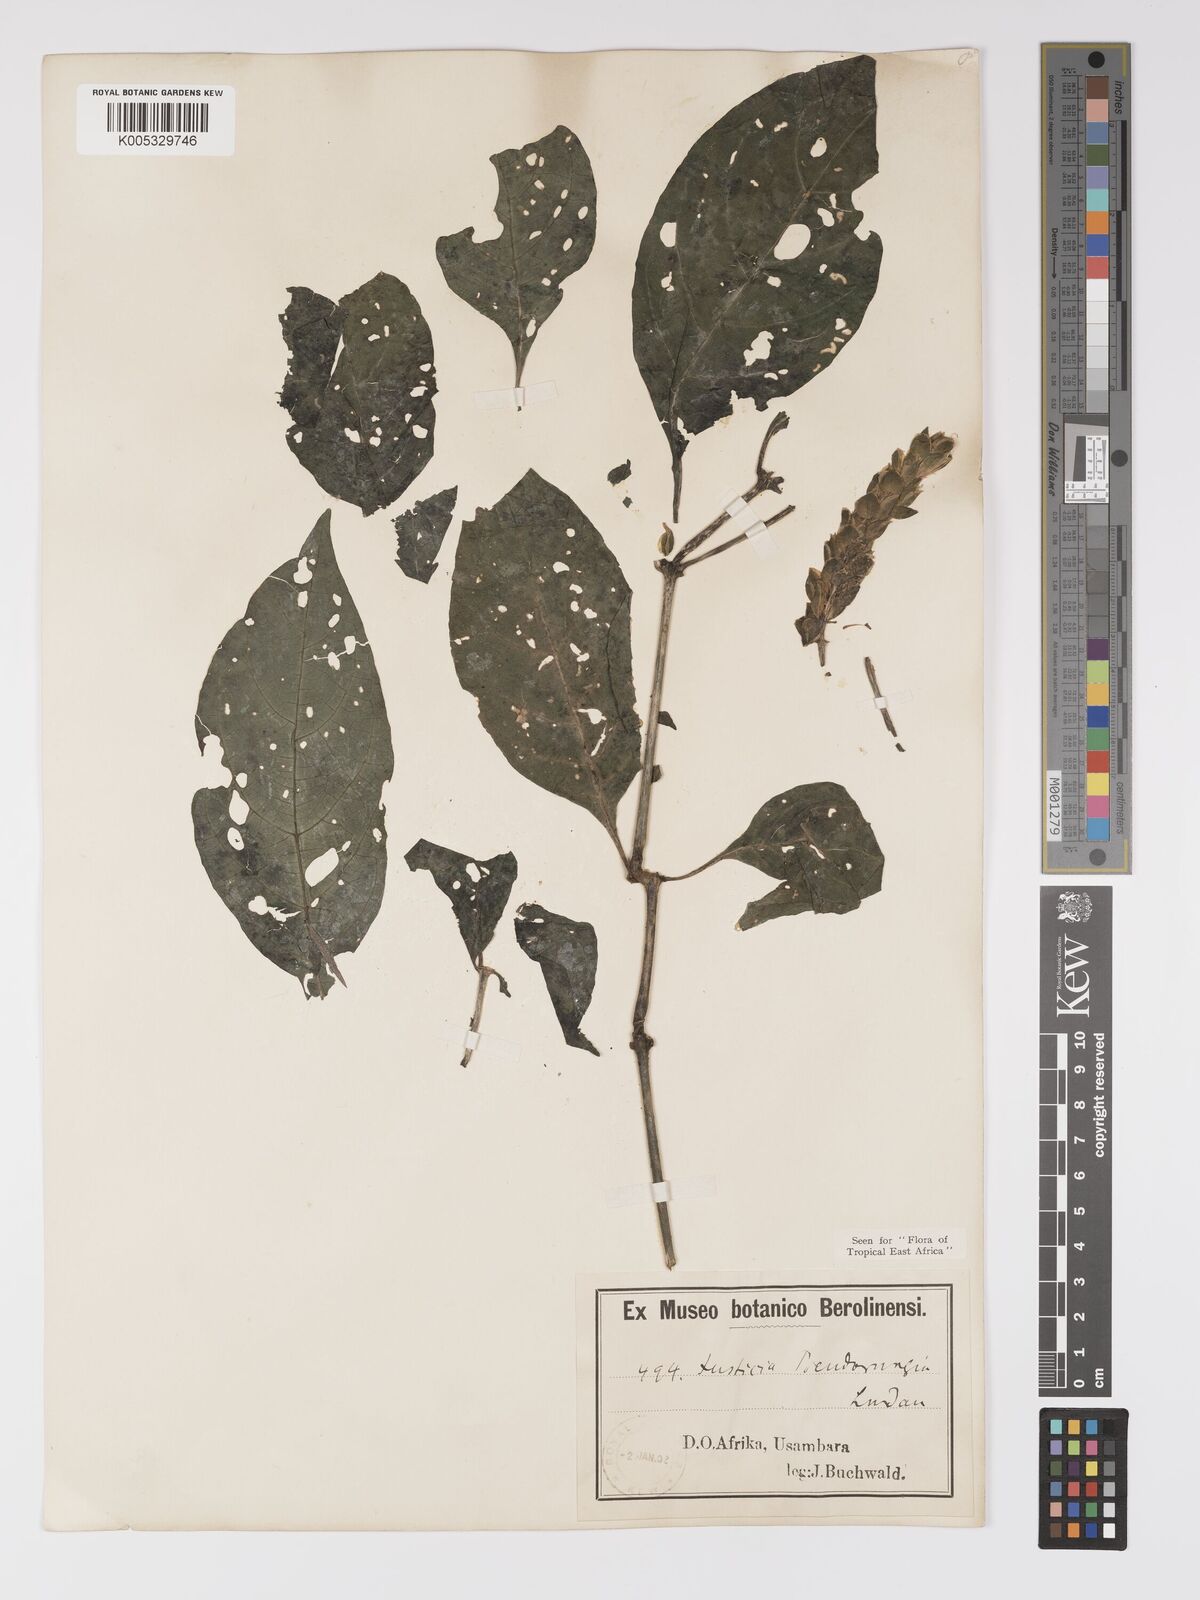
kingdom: Plantae
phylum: Tracheophyta
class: Magnoliopsida
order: Lamiales
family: Acanthaceae
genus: Justicia
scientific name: Justicia pseudorungia
